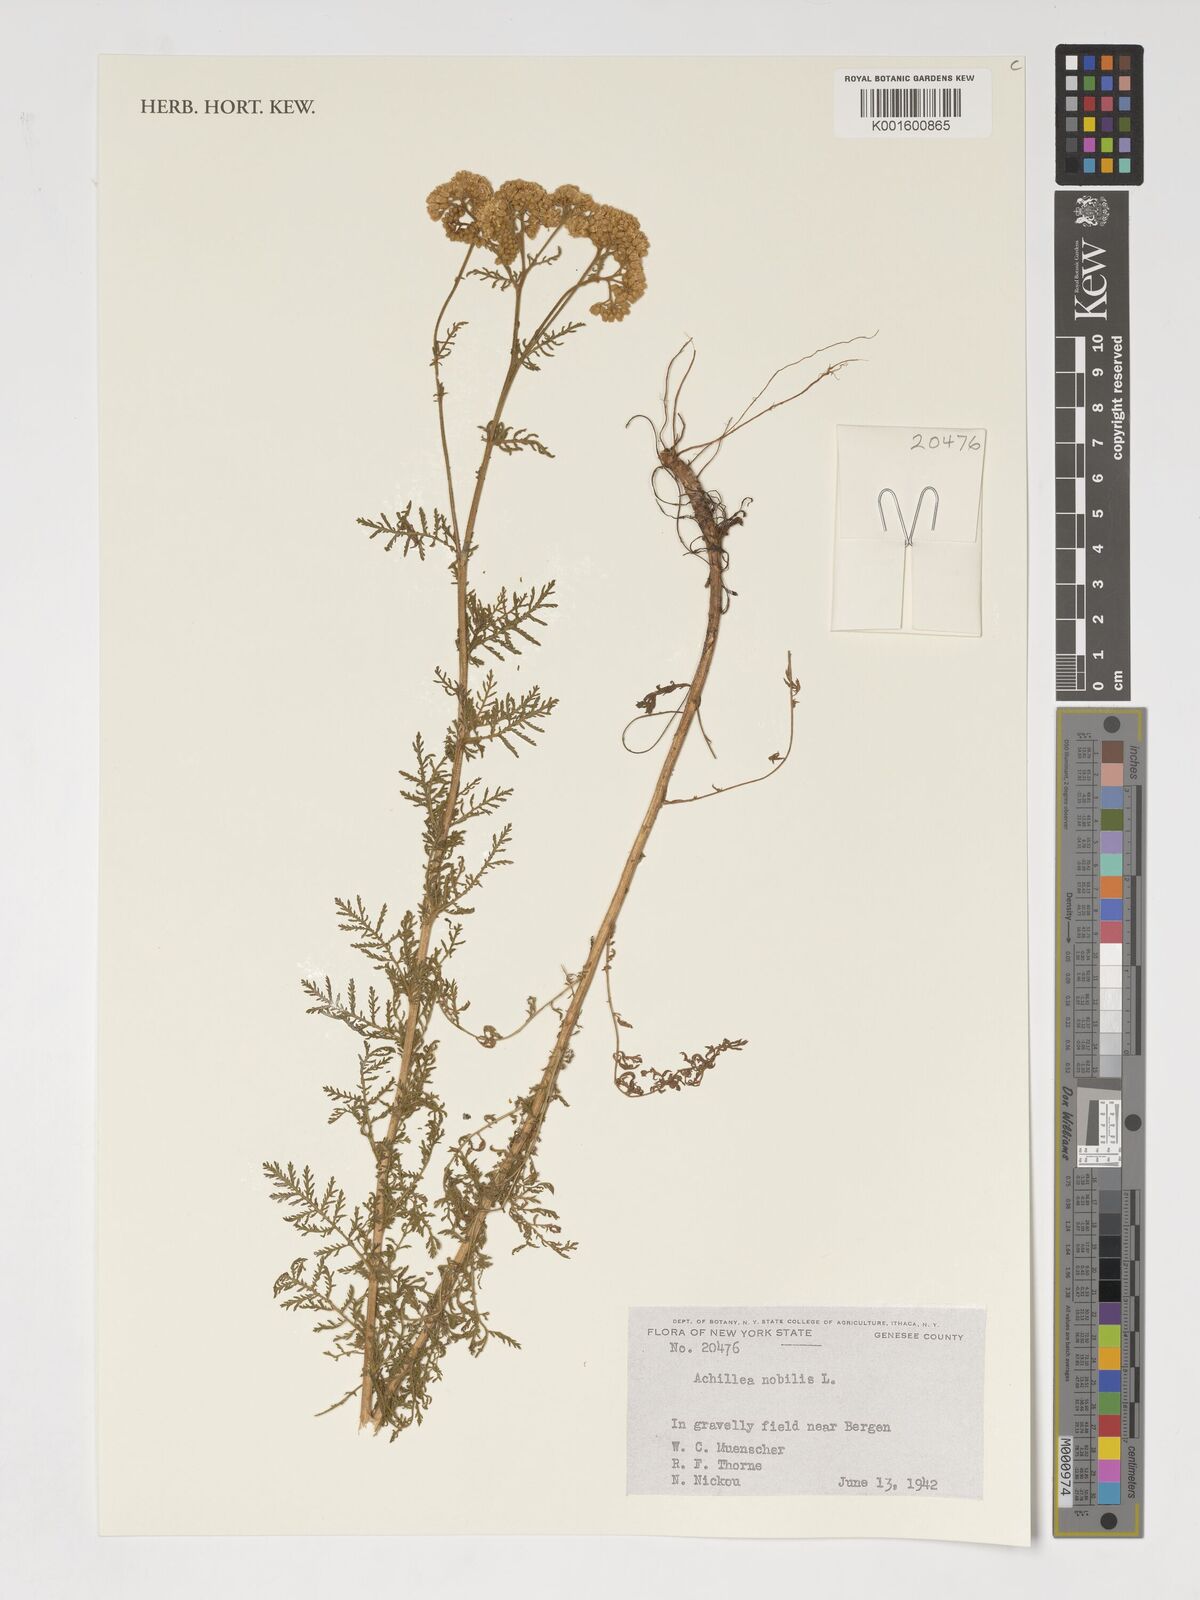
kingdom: Plantae
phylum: Tracheophyta
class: Magnoliopsida
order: Asterales
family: Asteraceae
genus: Achillea
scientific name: Achillea nobilis
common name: Noble yarrow
